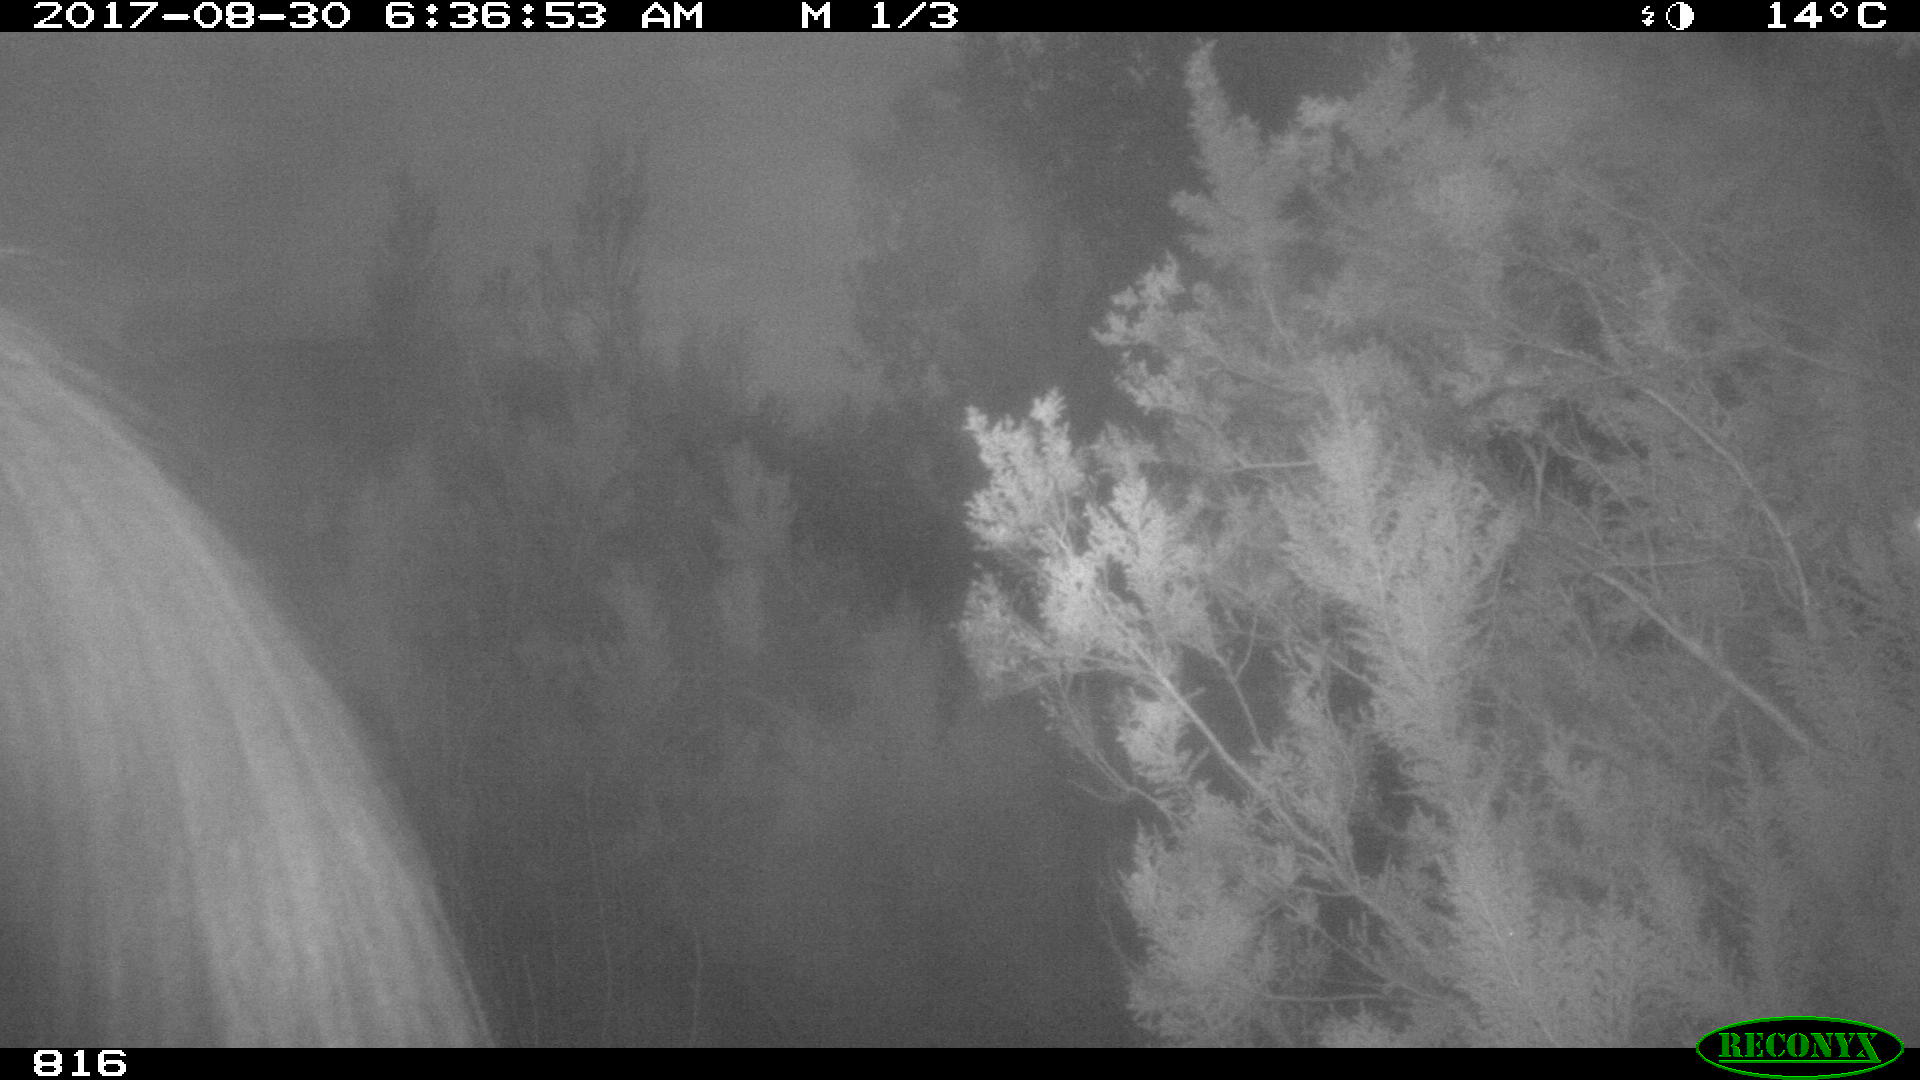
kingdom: Animalia
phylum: Chordata
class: Mammalia
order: Perissodactyla
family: Equidae
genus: Equus
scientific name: Equus caballus
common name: Horse
